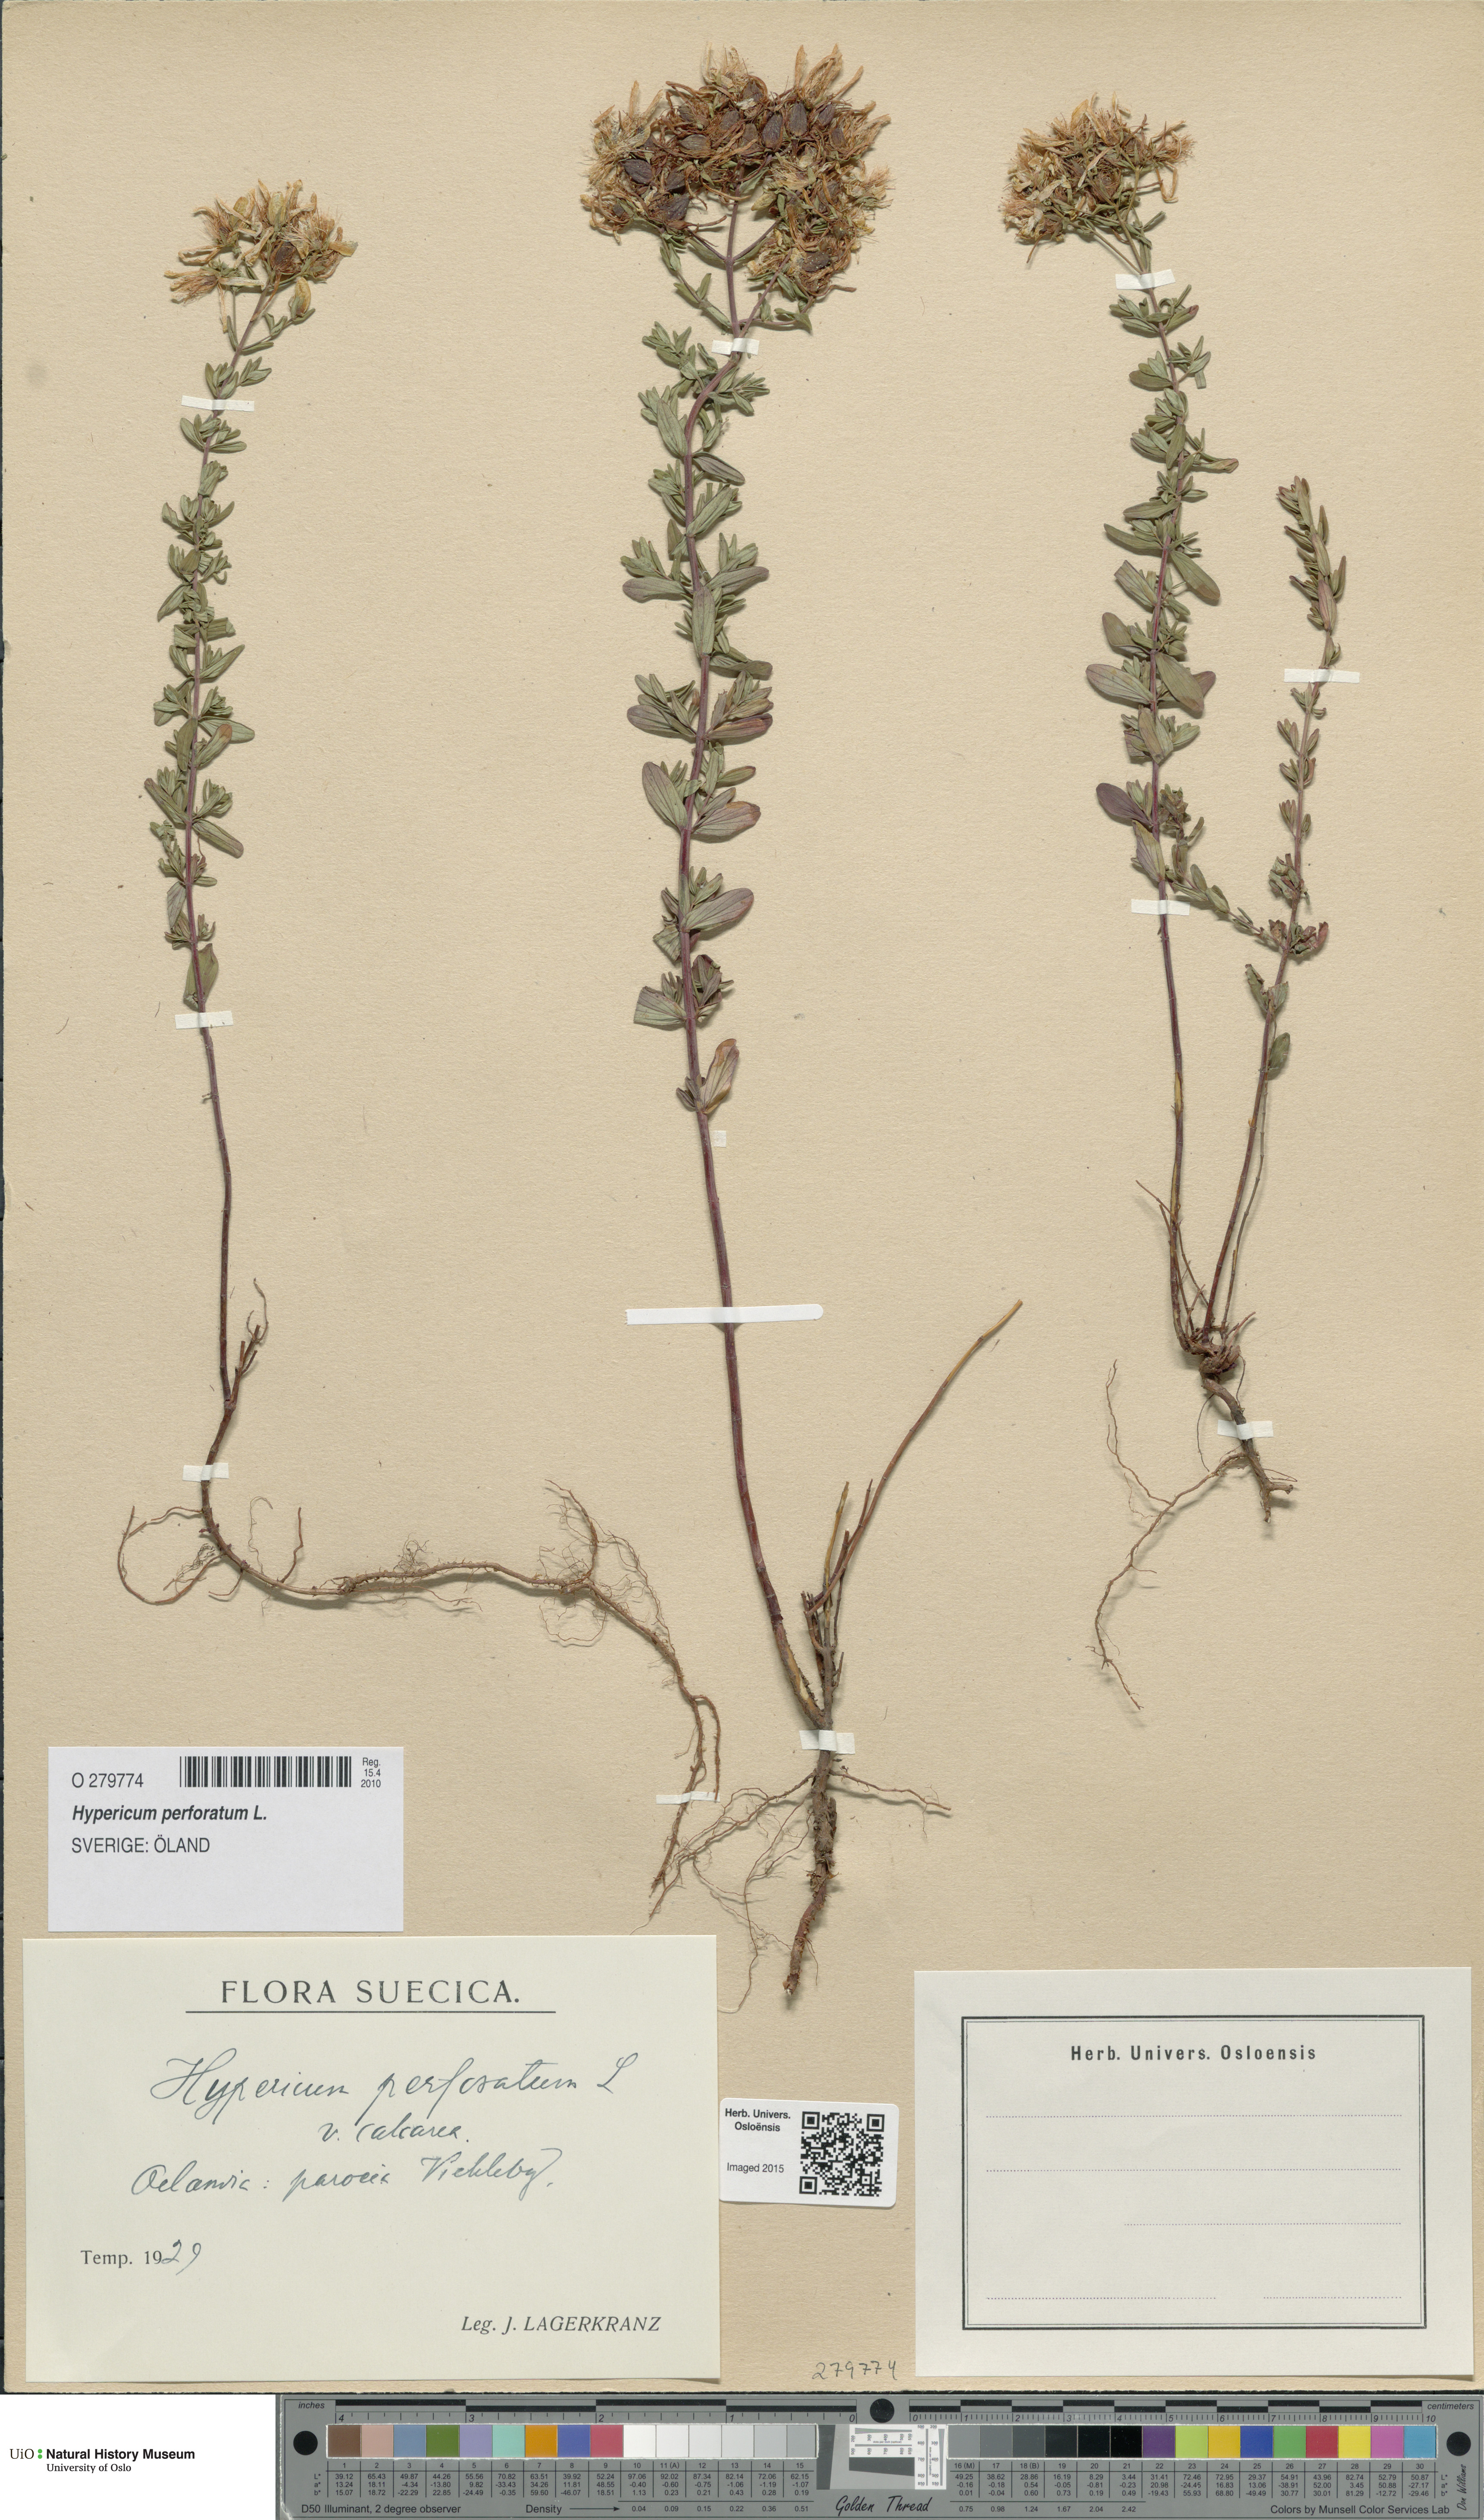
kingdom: Plantae
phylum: Tracheophyta
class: Magnoliopsida
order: Malpighiales
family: Hypericaceae
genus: Hypericum
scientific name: Hypericum perforatum
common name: Common st. johnswort
